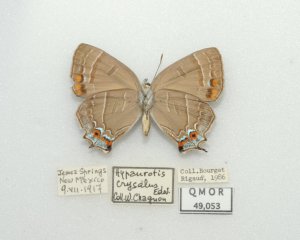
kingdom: Animalia
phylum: Arthropoda
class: Insecta
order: Lepidoptera
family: Lycaenidae
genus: Hypaurotis
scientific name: Hypaurotis crysalus
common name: Colorado Hairstreak
